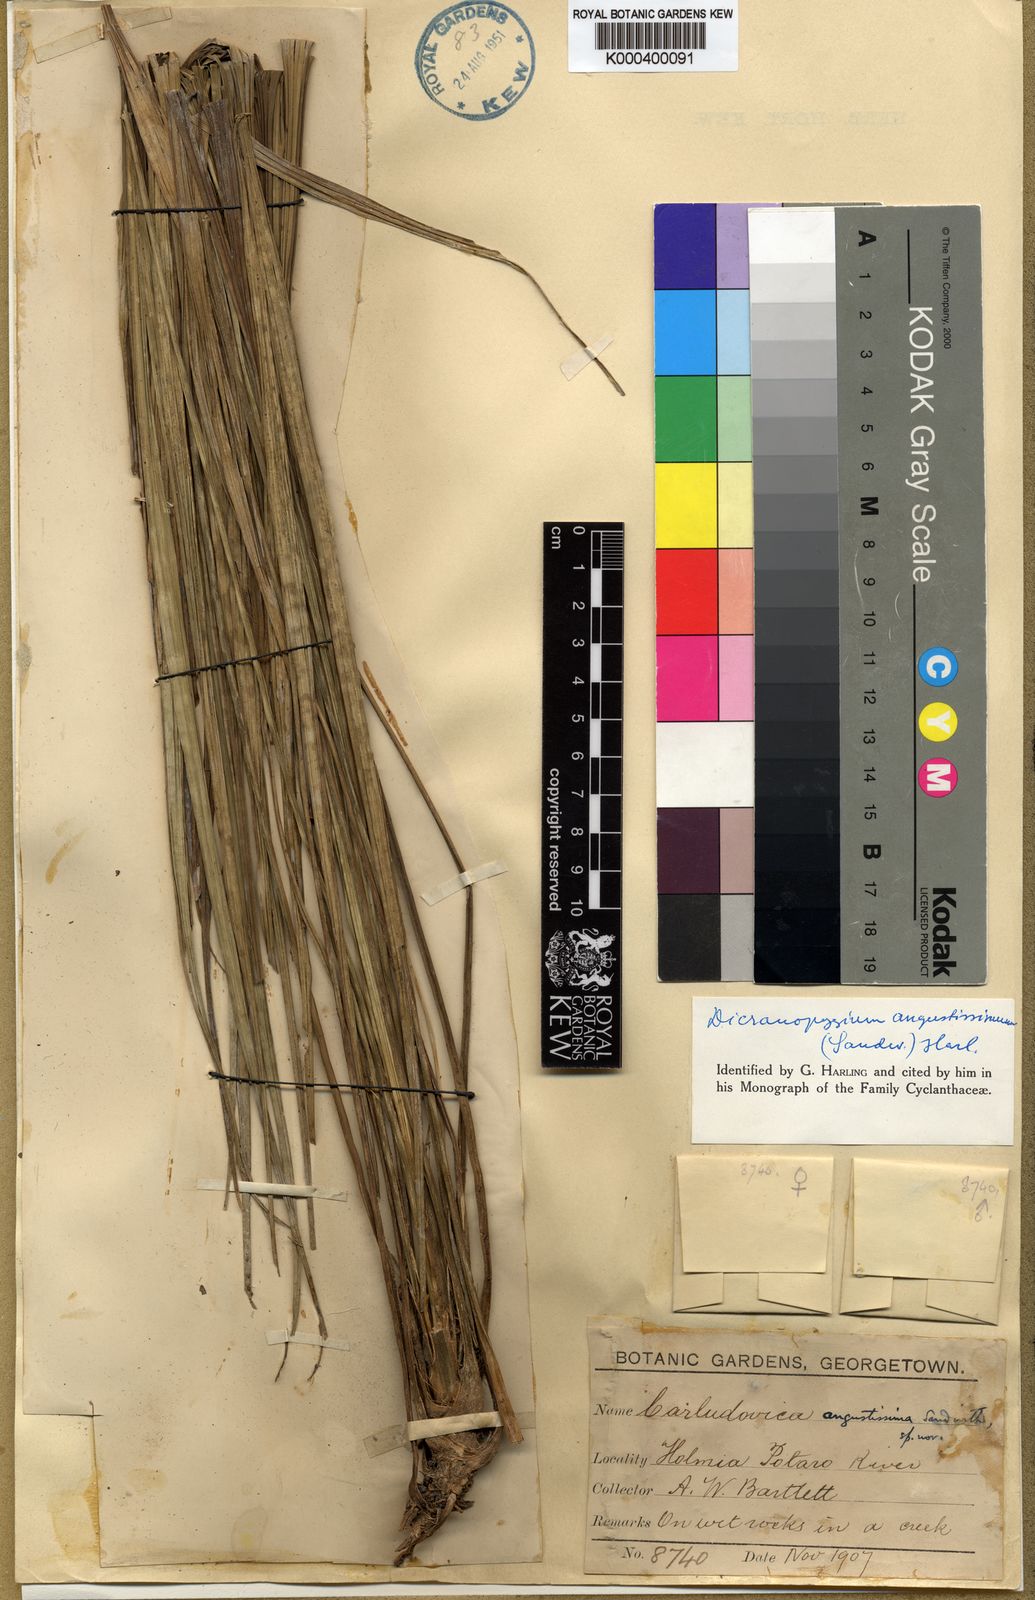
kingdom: Plantae
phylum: Tracheophyta
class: Liliopsida
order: Pandanales
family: Cyclanthaceae
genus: Dicranopygium
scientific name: Dicranopygium angustissimum
